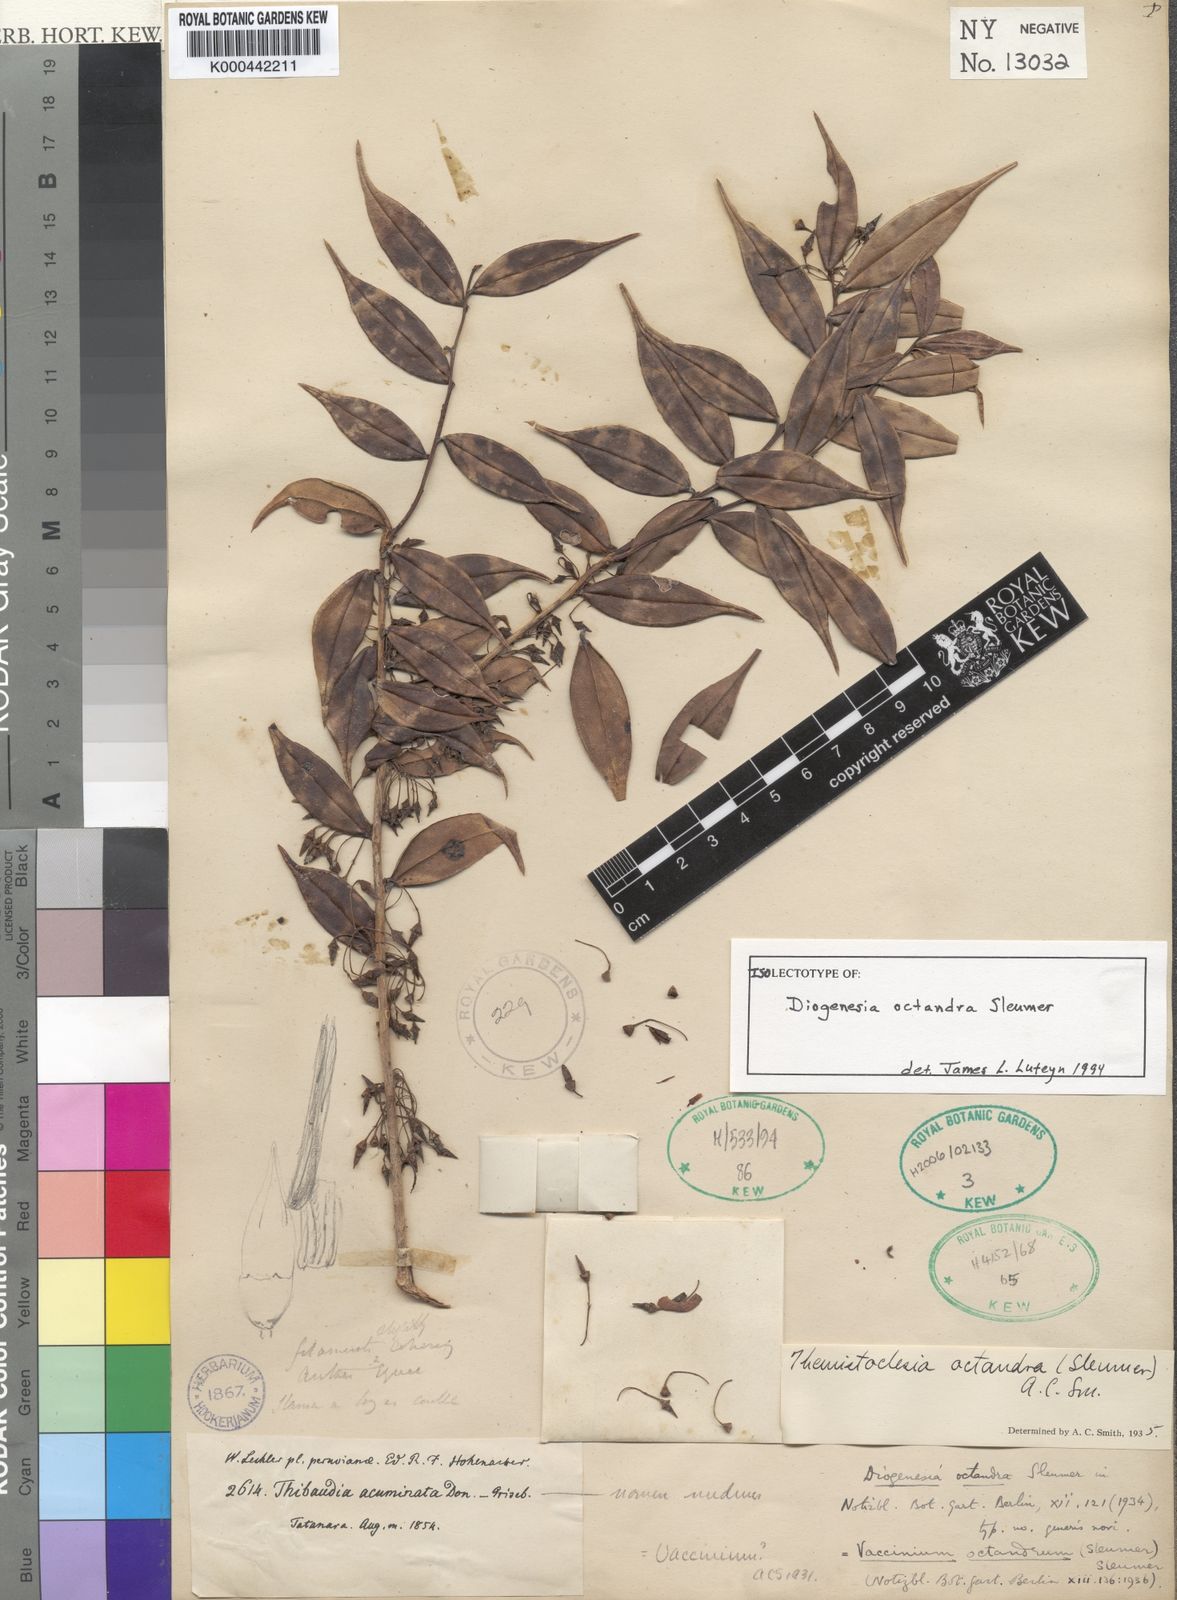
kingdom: Plantae
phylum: Tracheophyta
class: Magnoliopsida
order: Ericales
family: Ericaceae
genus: Diogenesia
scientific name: Diogenesia octandra
